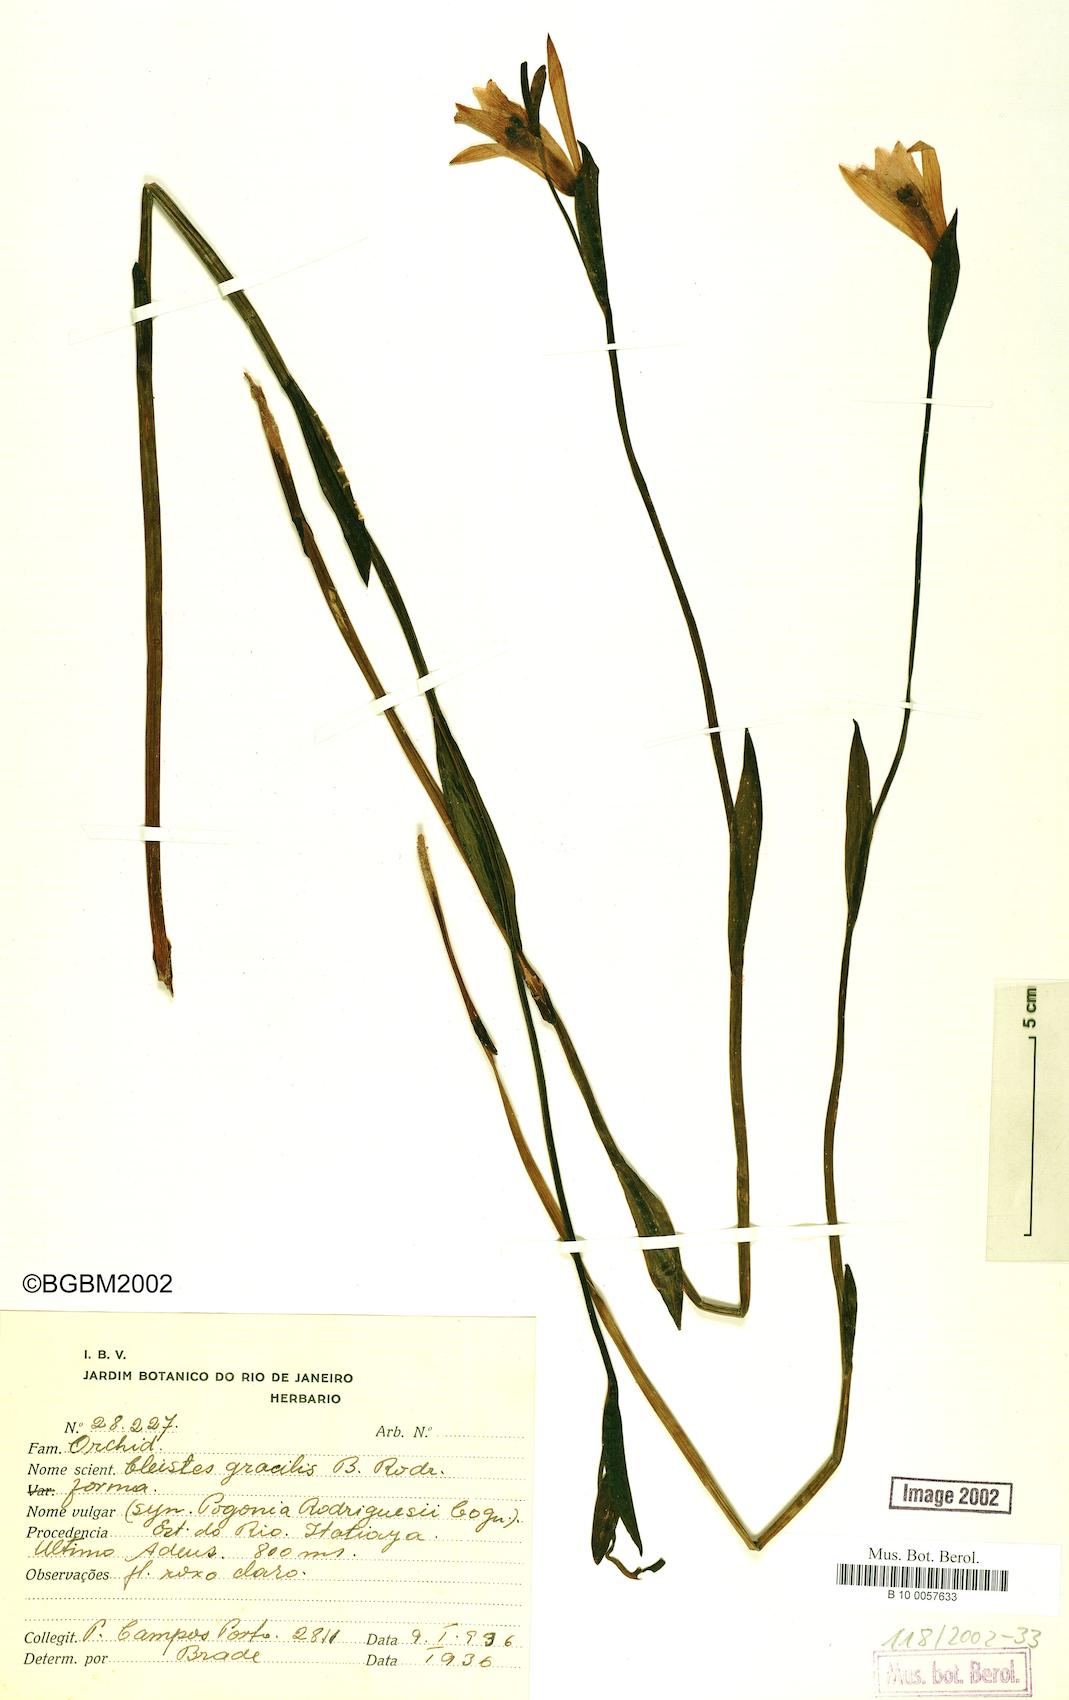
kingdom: Plantae
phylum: Tracheophyta
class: Liliopsida
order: Asparagales
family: Orchidaceae
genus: Cleistes
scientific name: Cleistes rodriguesii
